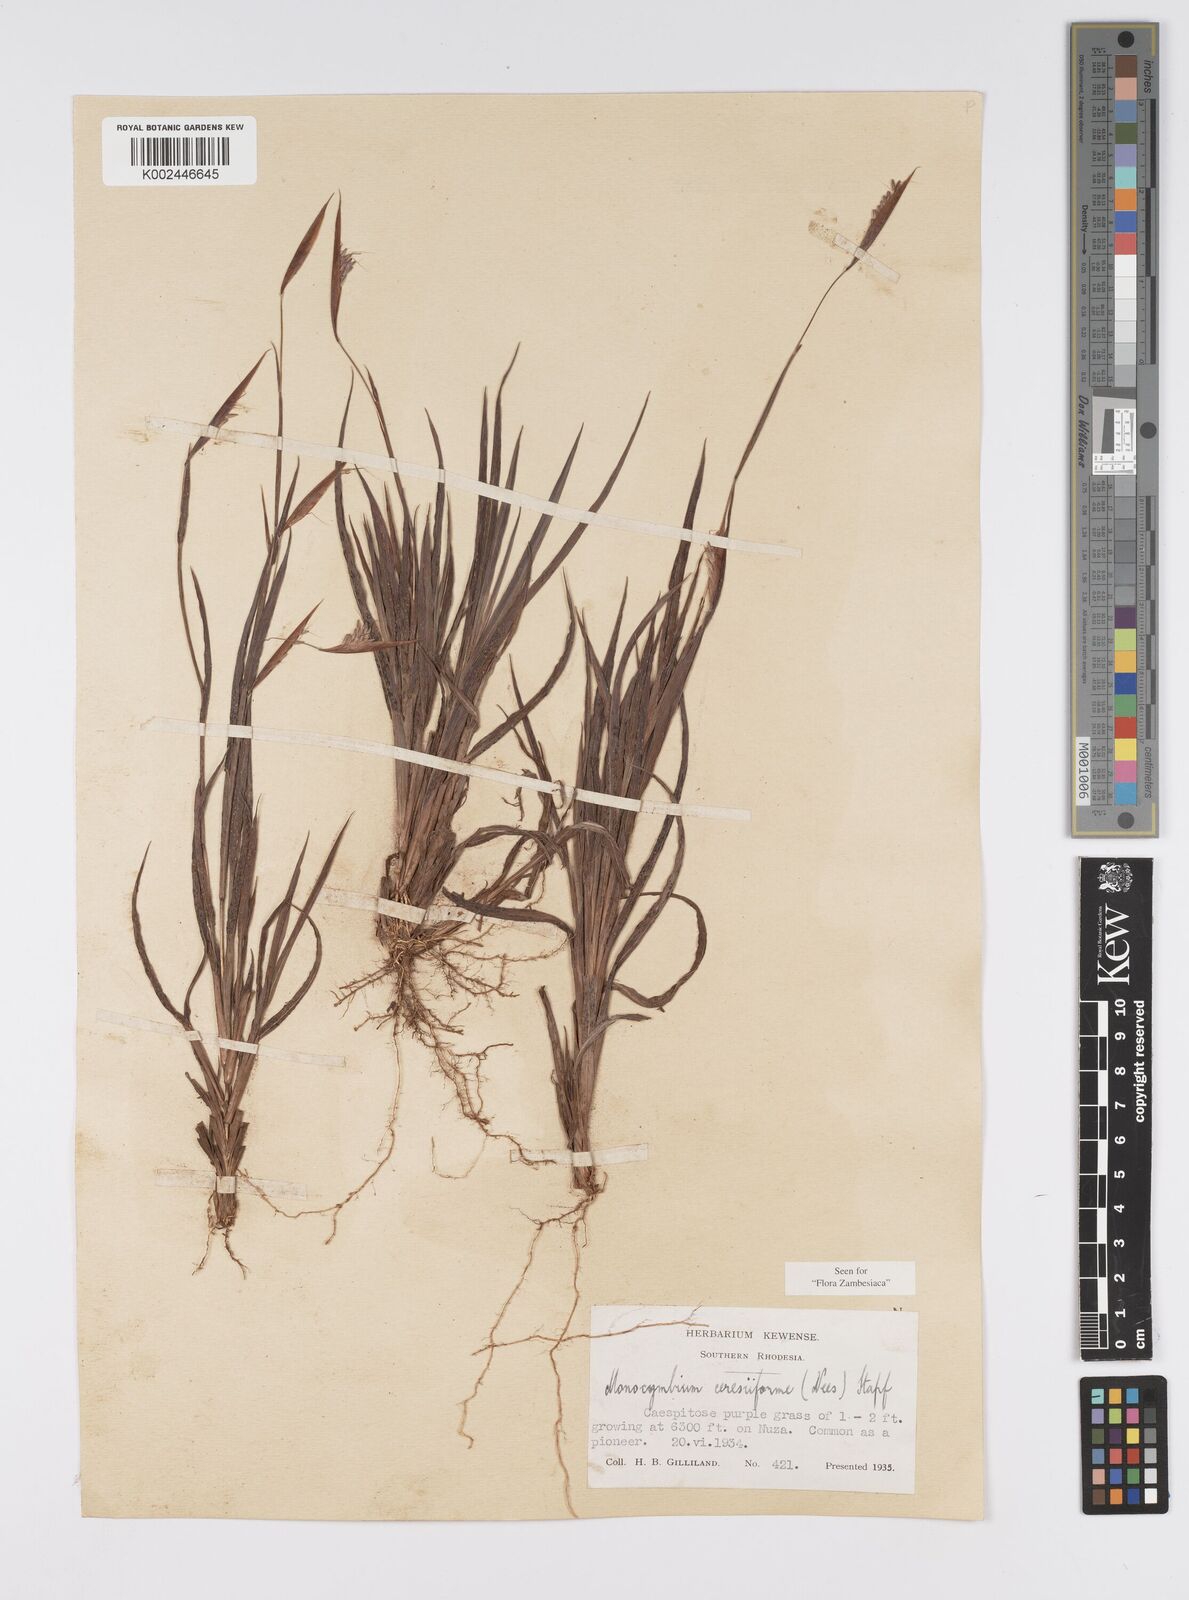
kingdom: Plantae
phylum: Tracheophyta
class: Liliopsida
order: Poales
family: Poaceae
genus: Monocymbium
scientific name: Monocymbium ceresiiforme
